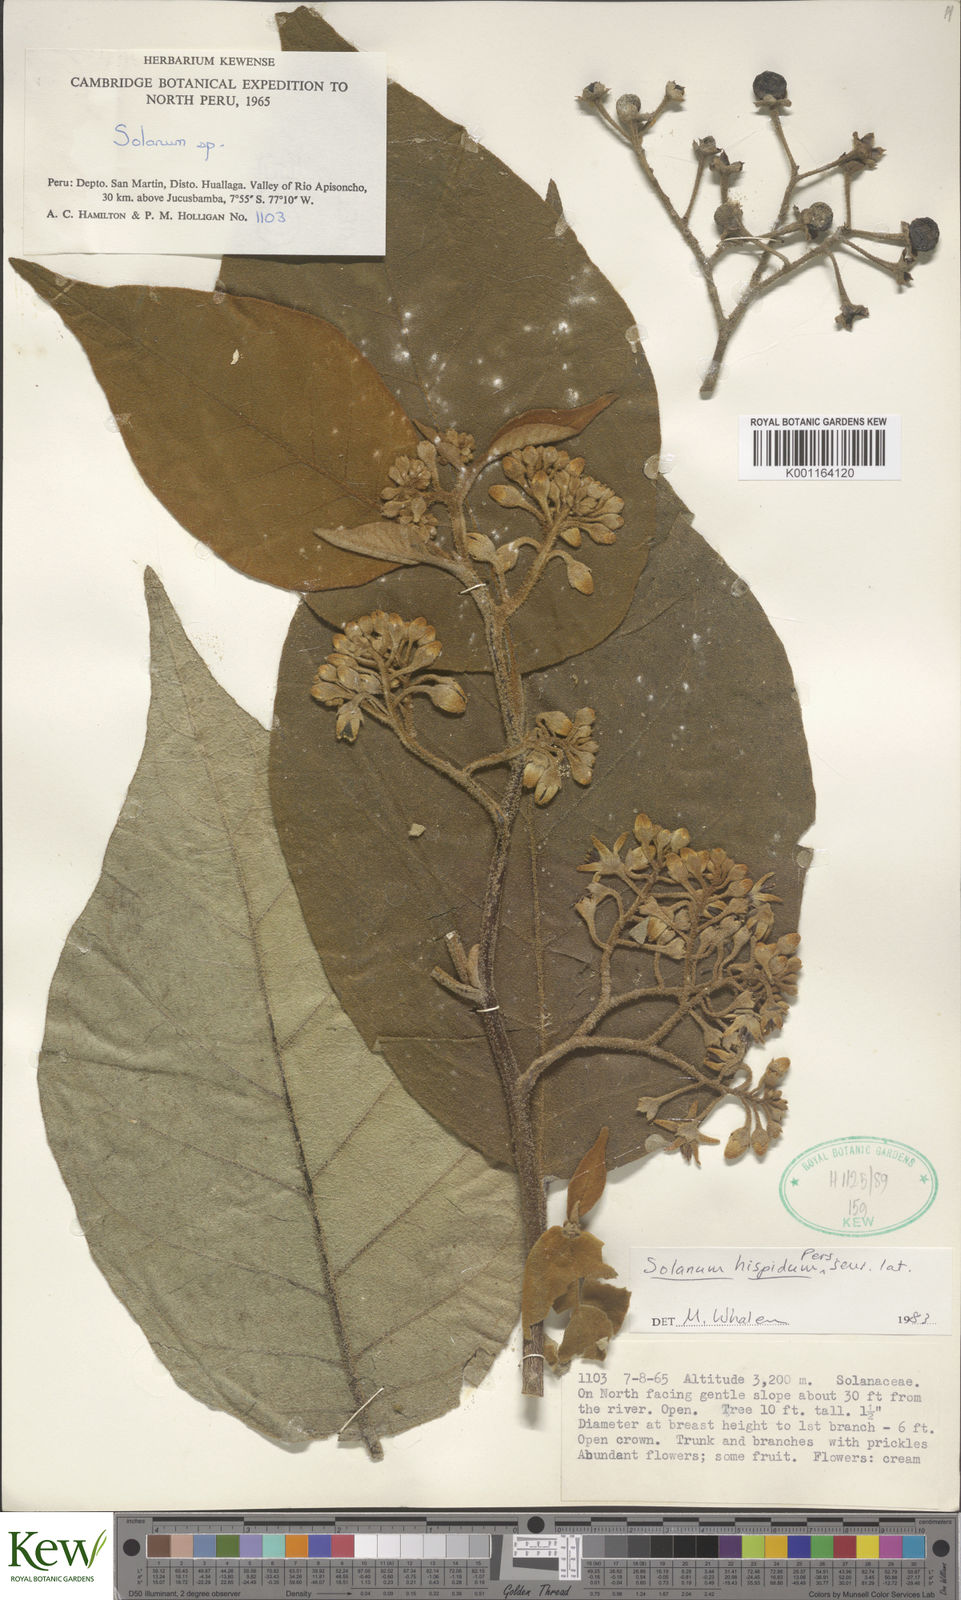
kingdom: Plantae
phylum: Tracheophyta
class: Magnoliopsida
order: Solanales
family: Solanaceae
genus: Solanum
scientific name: Solanum asperolanatum
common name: Devil's-fig
